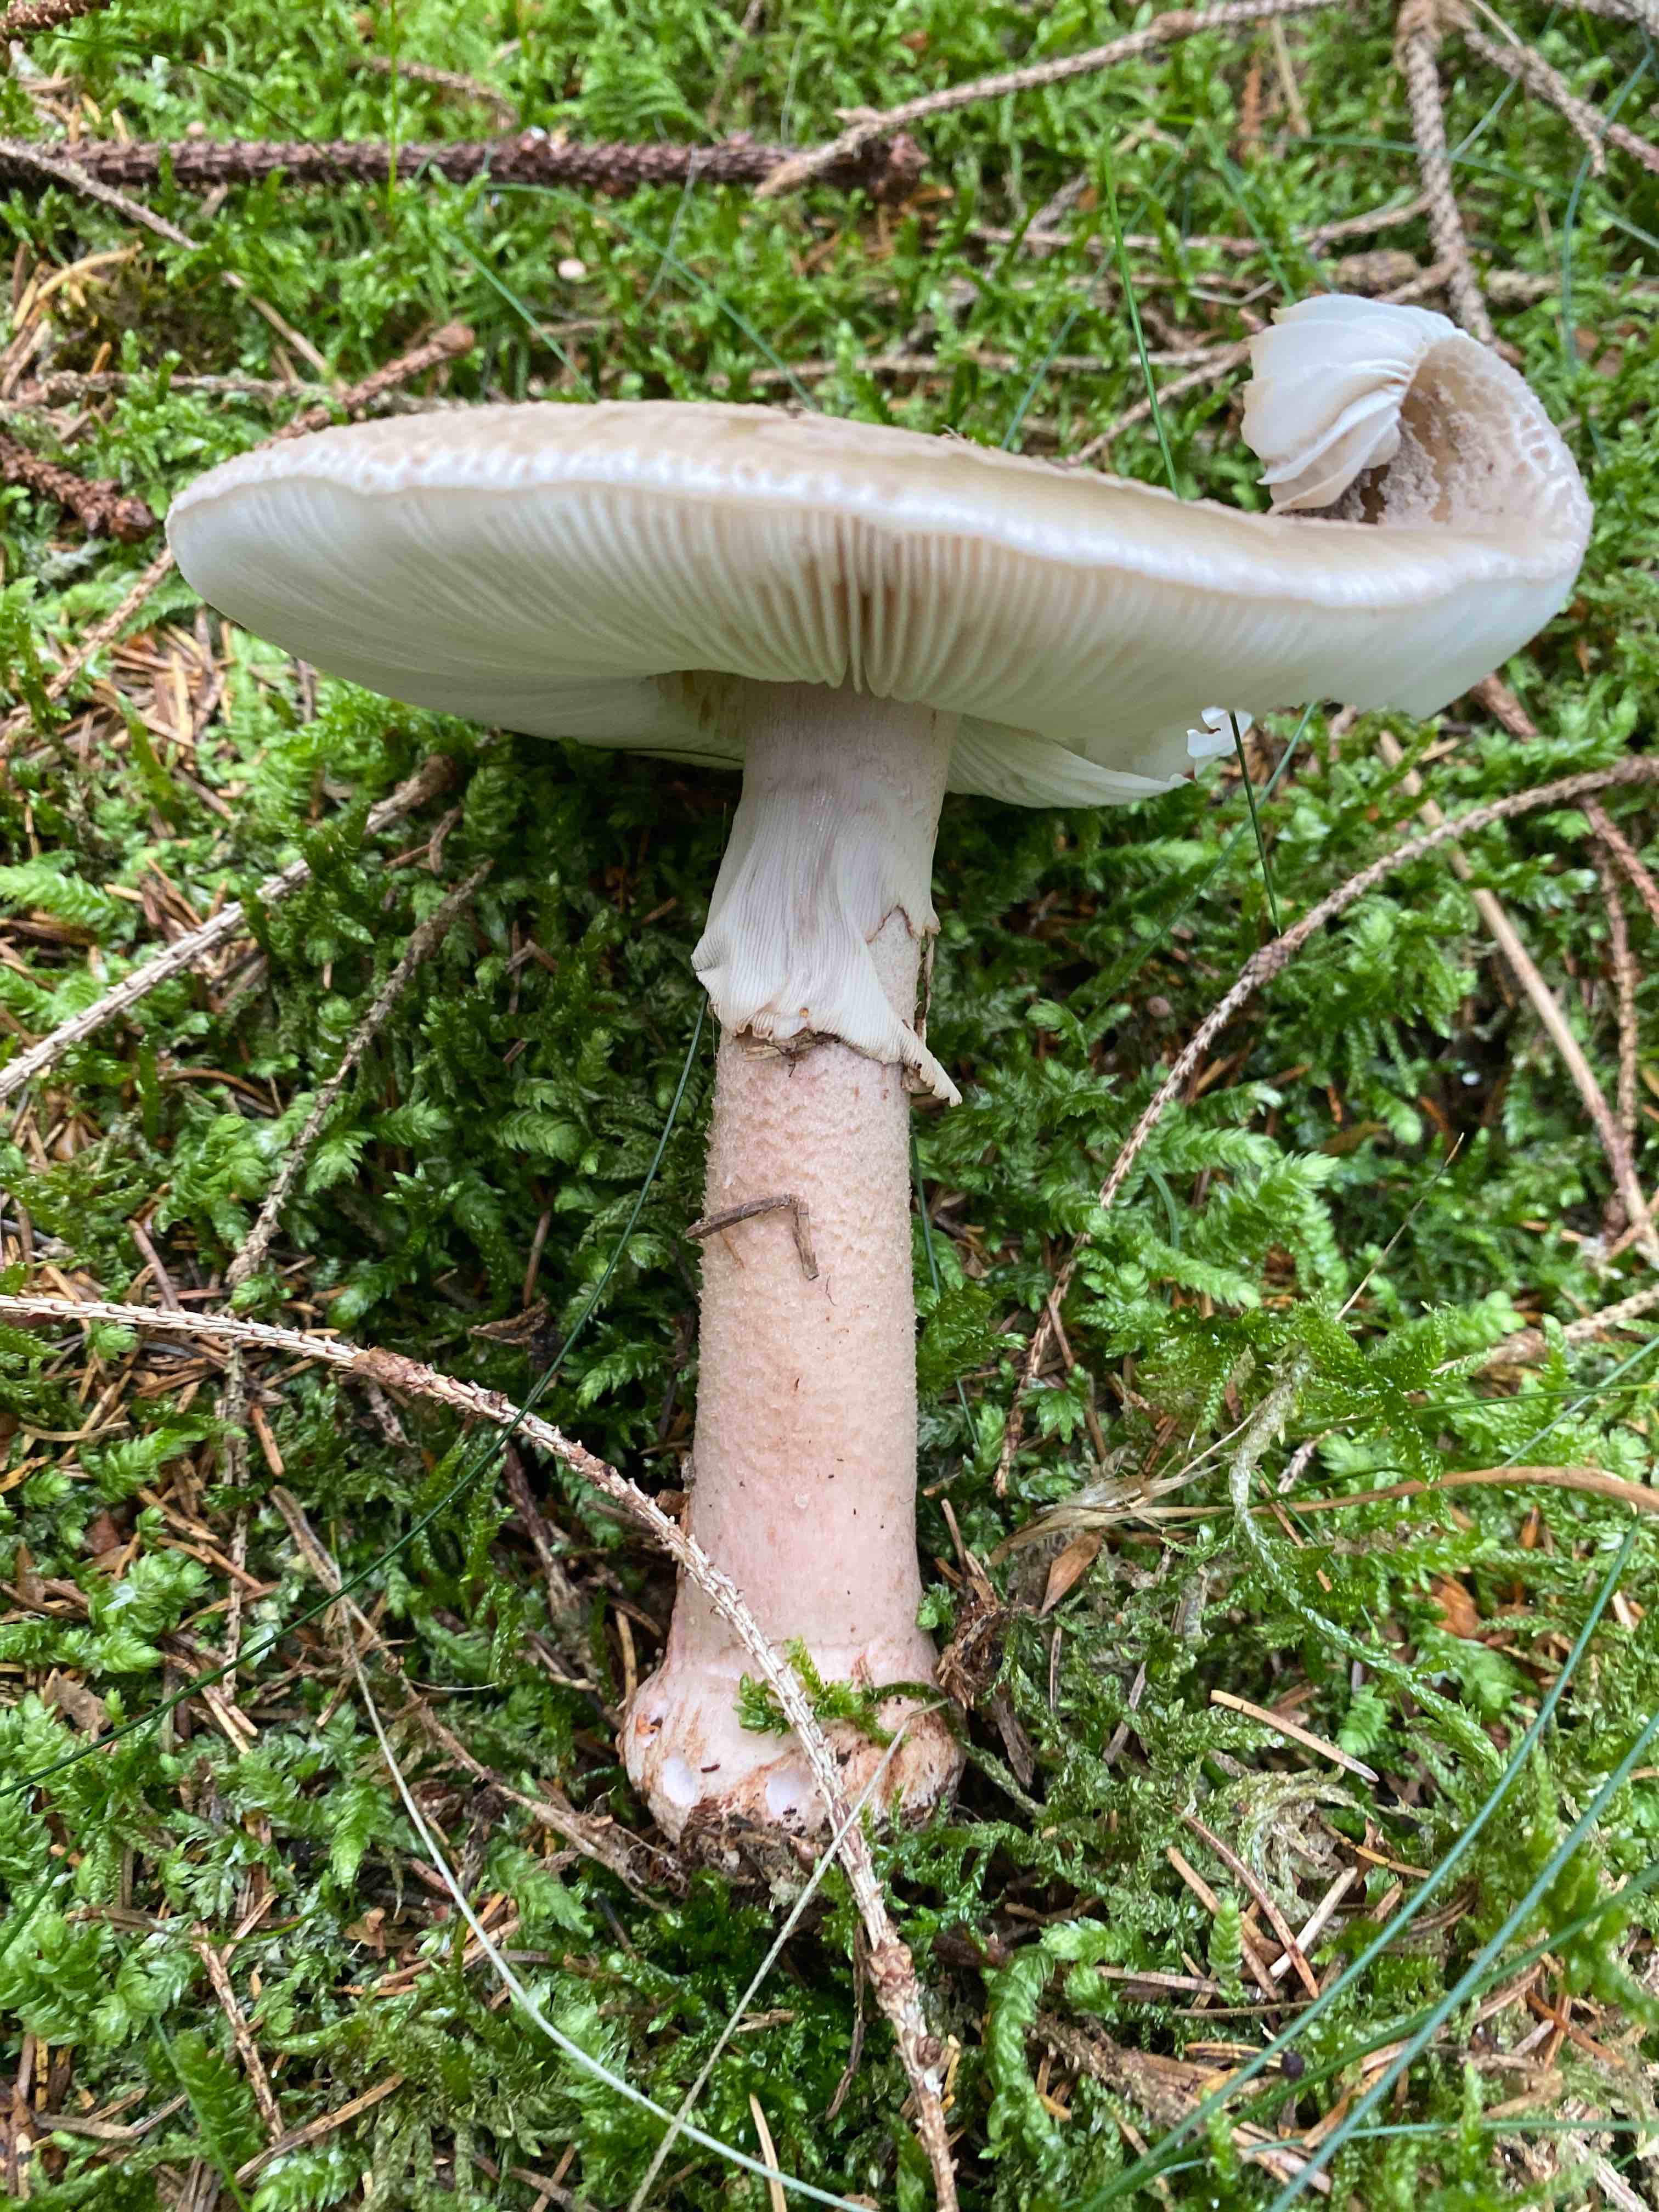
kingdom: Fungi
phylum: Basidiomycota
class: Agaricomycetes
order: Agaricales
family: Amanitaceae
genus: Amanita
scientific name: Amanita rubescens
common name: rødmende fluesvamp
